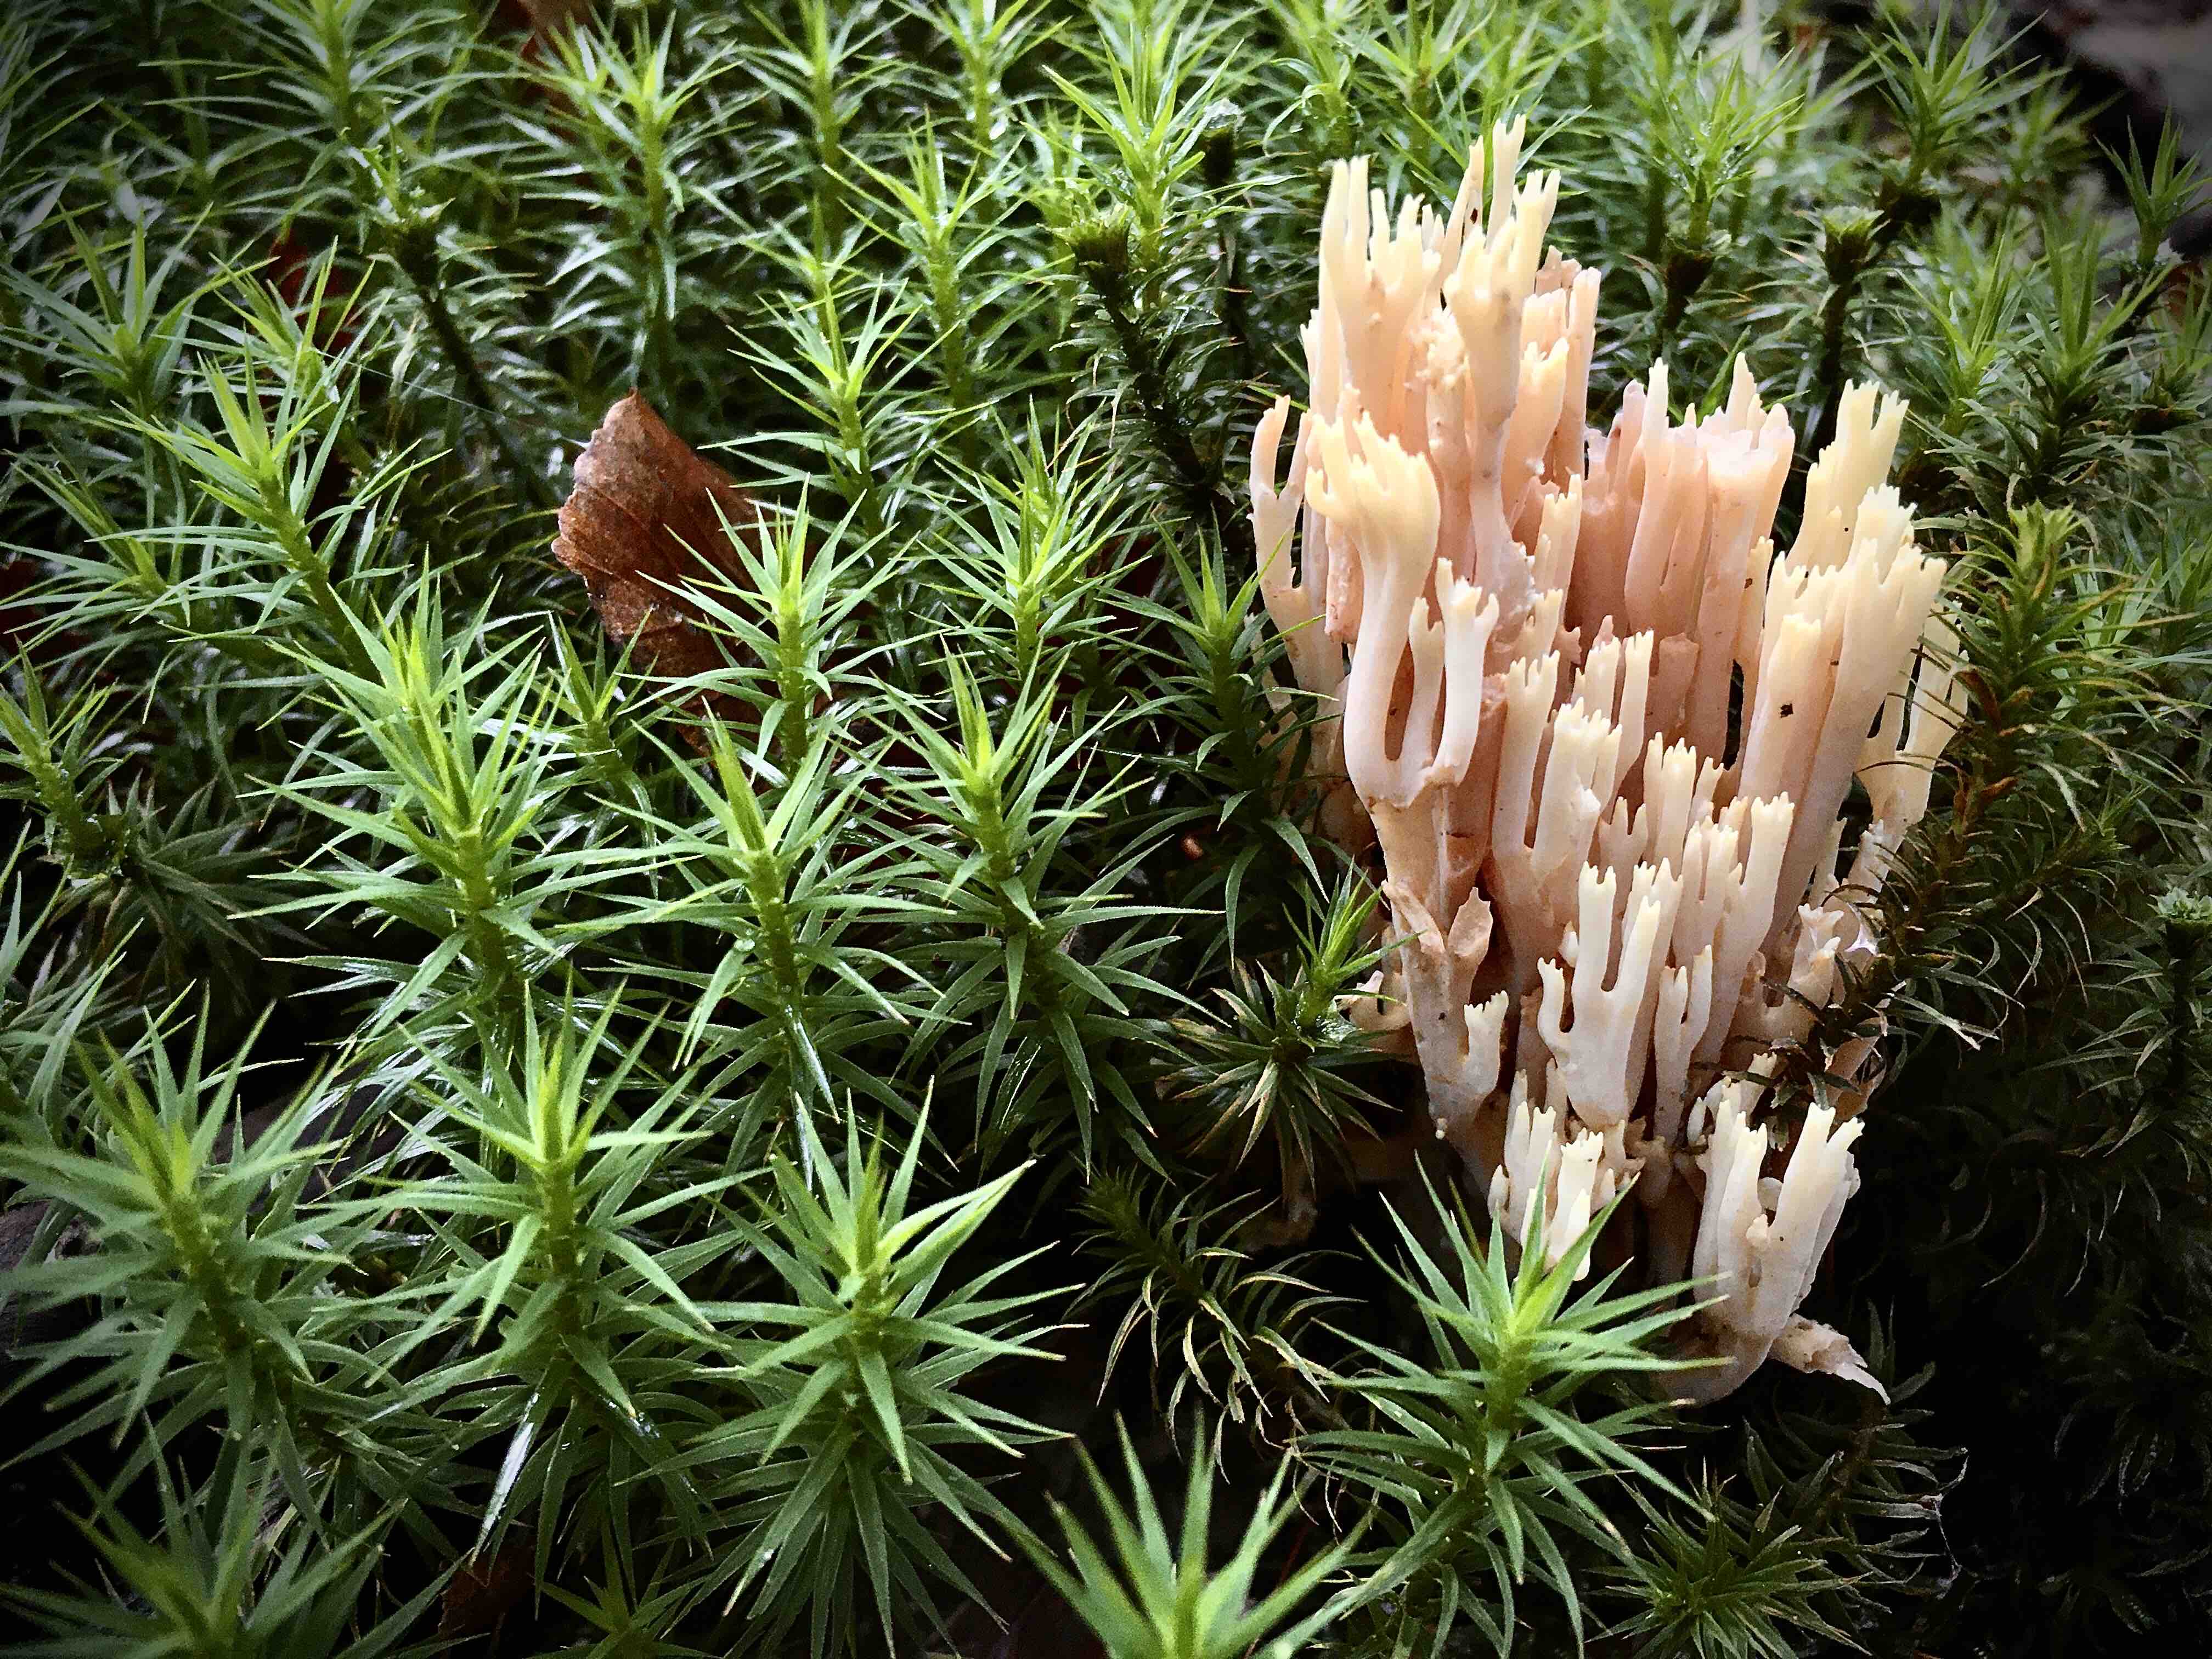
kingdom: Fungi
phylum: Basidiomycota
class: Agaricomycetes
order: Gomphales
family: Gomphaceae
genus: Ramaria
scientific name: Ramaria stricta
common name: rank koralsvamp
